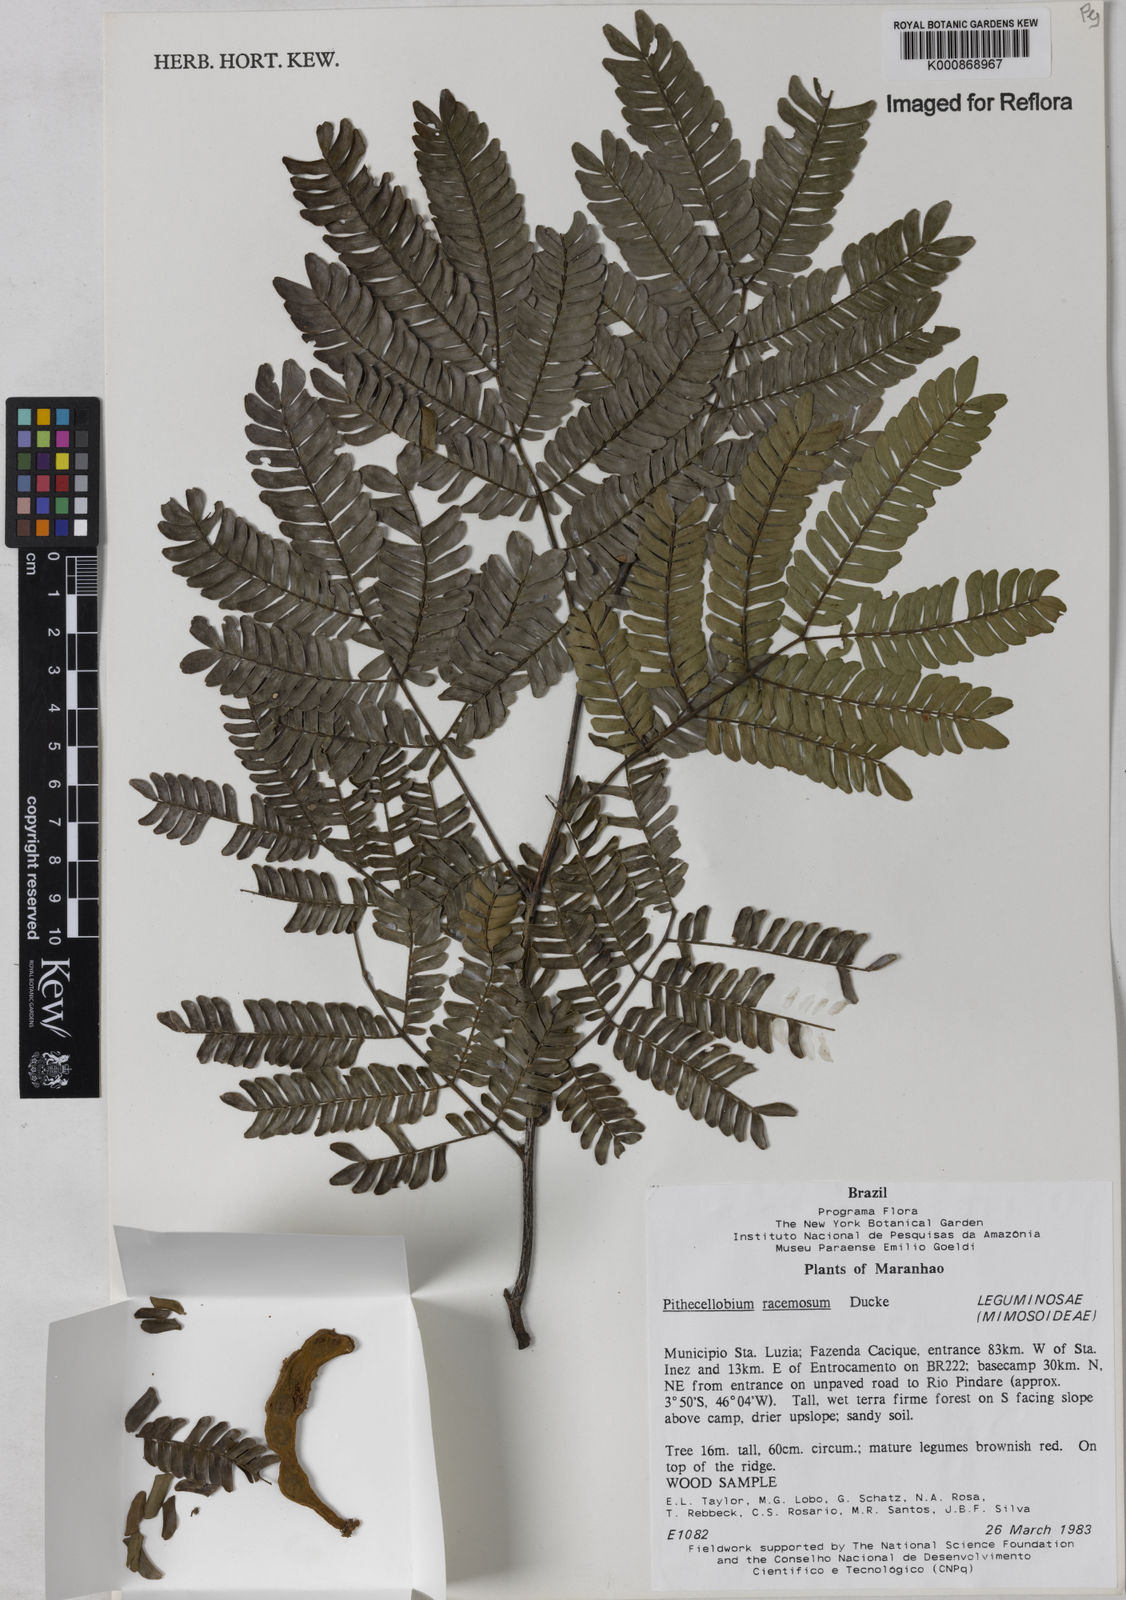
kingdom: Plantae
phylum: Tracheophyta
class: Magnoliopsida
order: Fabales
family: Fabaceae
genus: Marmaroxylon
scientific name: Marmaroxylon
